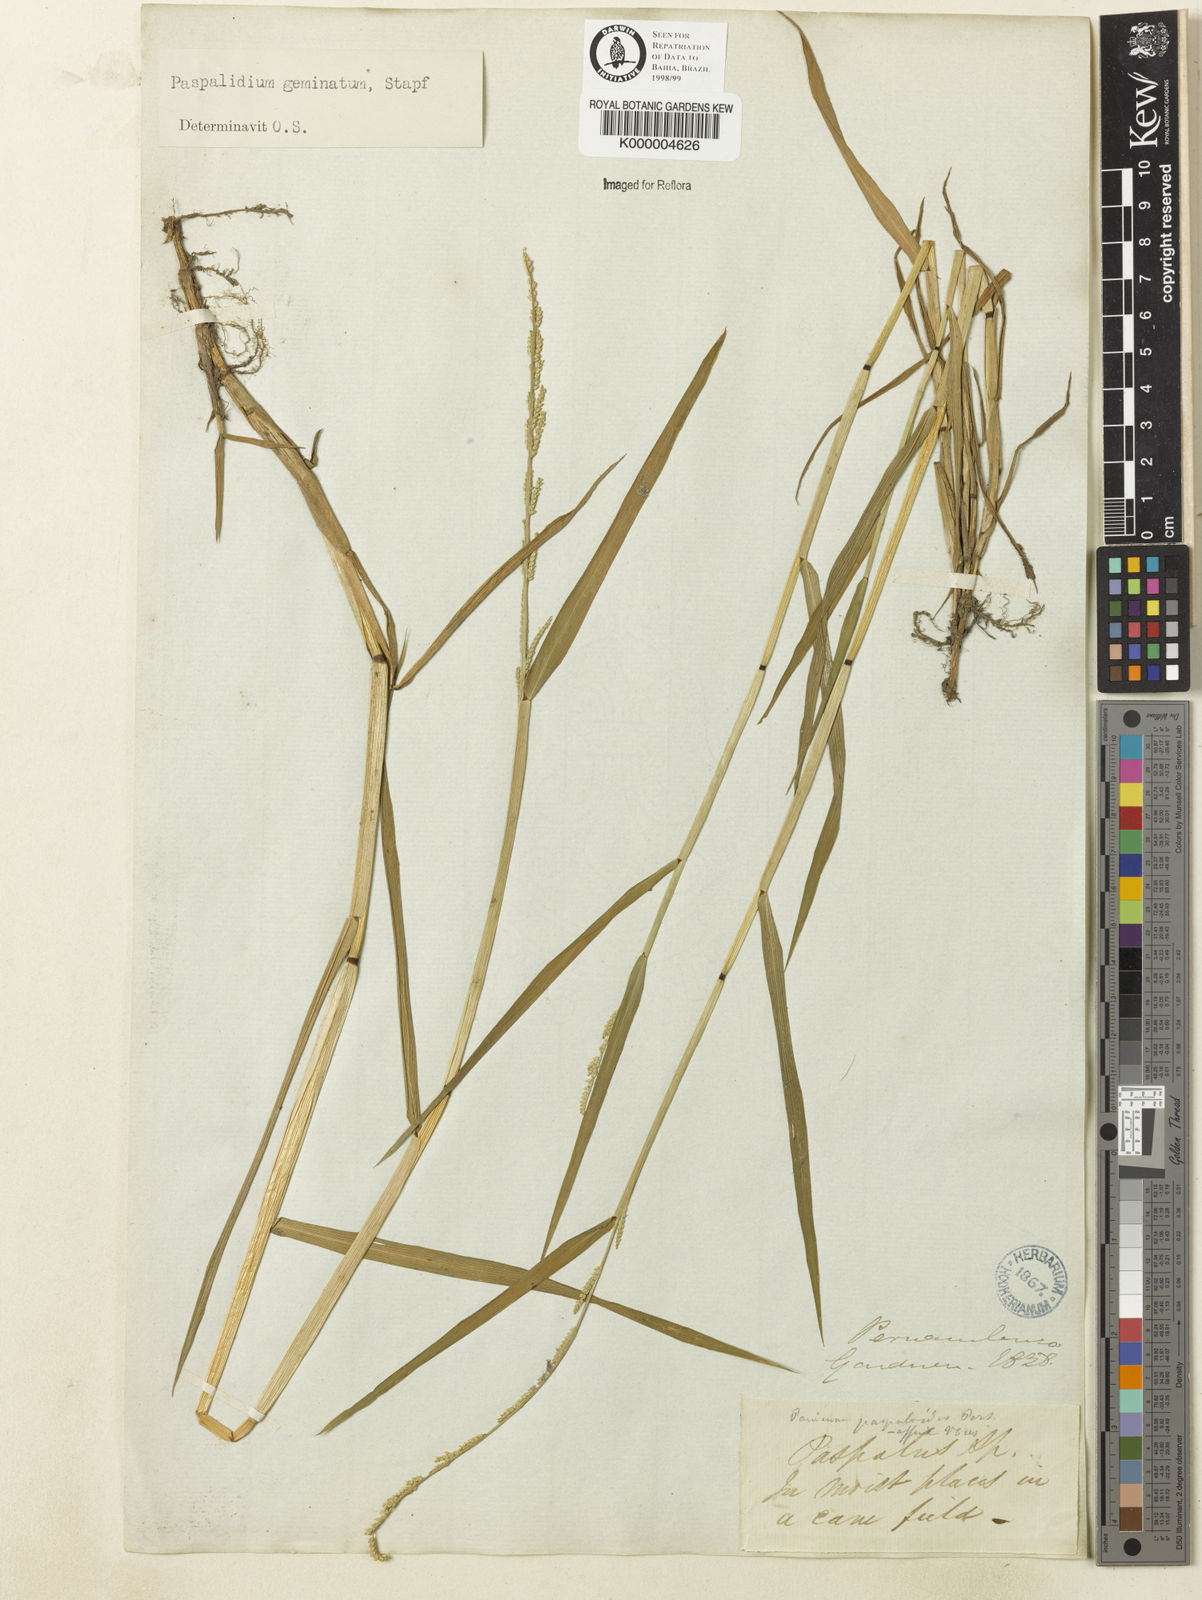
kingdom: Plantae
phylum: Tracheophyta
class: Liliopsida
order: Poales
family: Poaceae
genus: Setaria
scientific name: Setaria geminata
